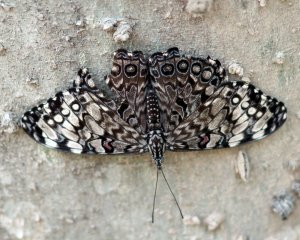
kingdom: Animalia
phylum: Arthropoda
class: Insecta
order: Lepidoptera
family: Nymphalidae
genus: Hamadryas
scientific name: Hamadryas guatemalena
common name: Guatemalan Cracker
